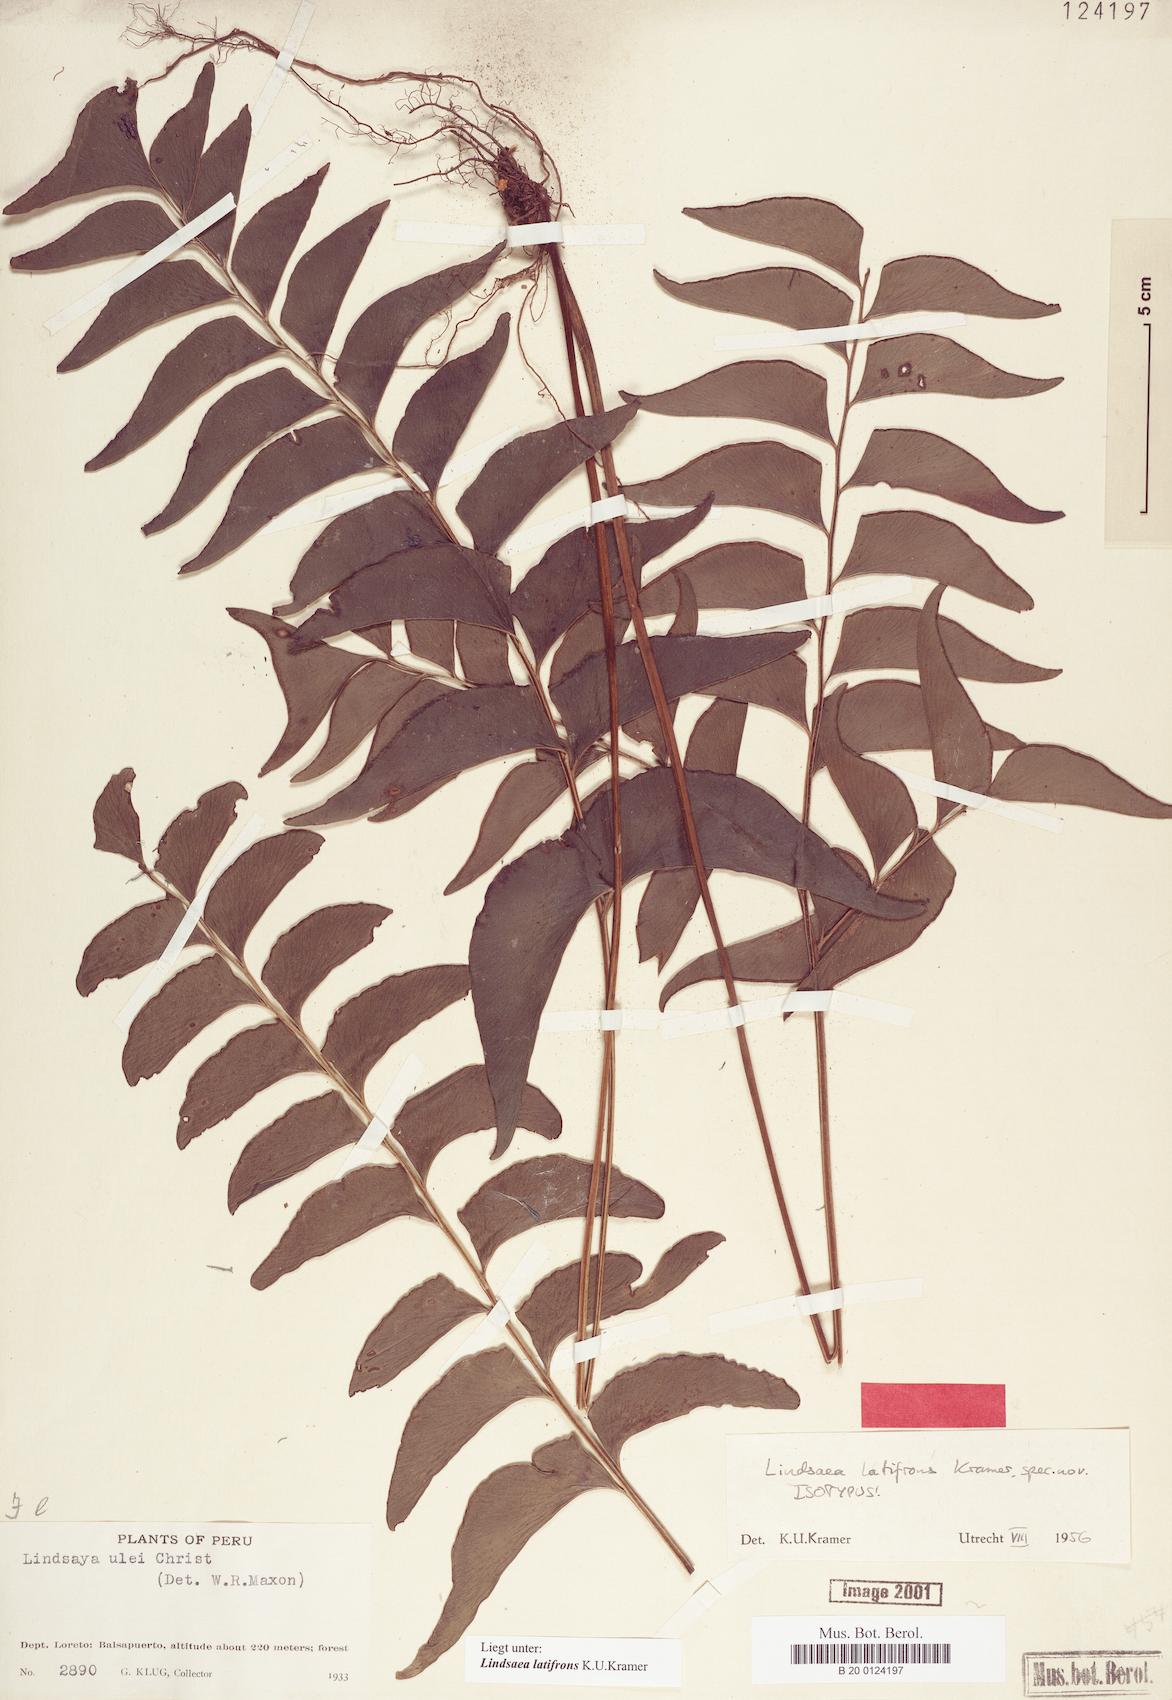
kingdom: Plantae
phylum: Tracheophyta
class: Polypodiopsida
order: Polypodiales
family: Lindsaeaceae
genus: Lindsaea
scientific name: Lindsaea latifrons
